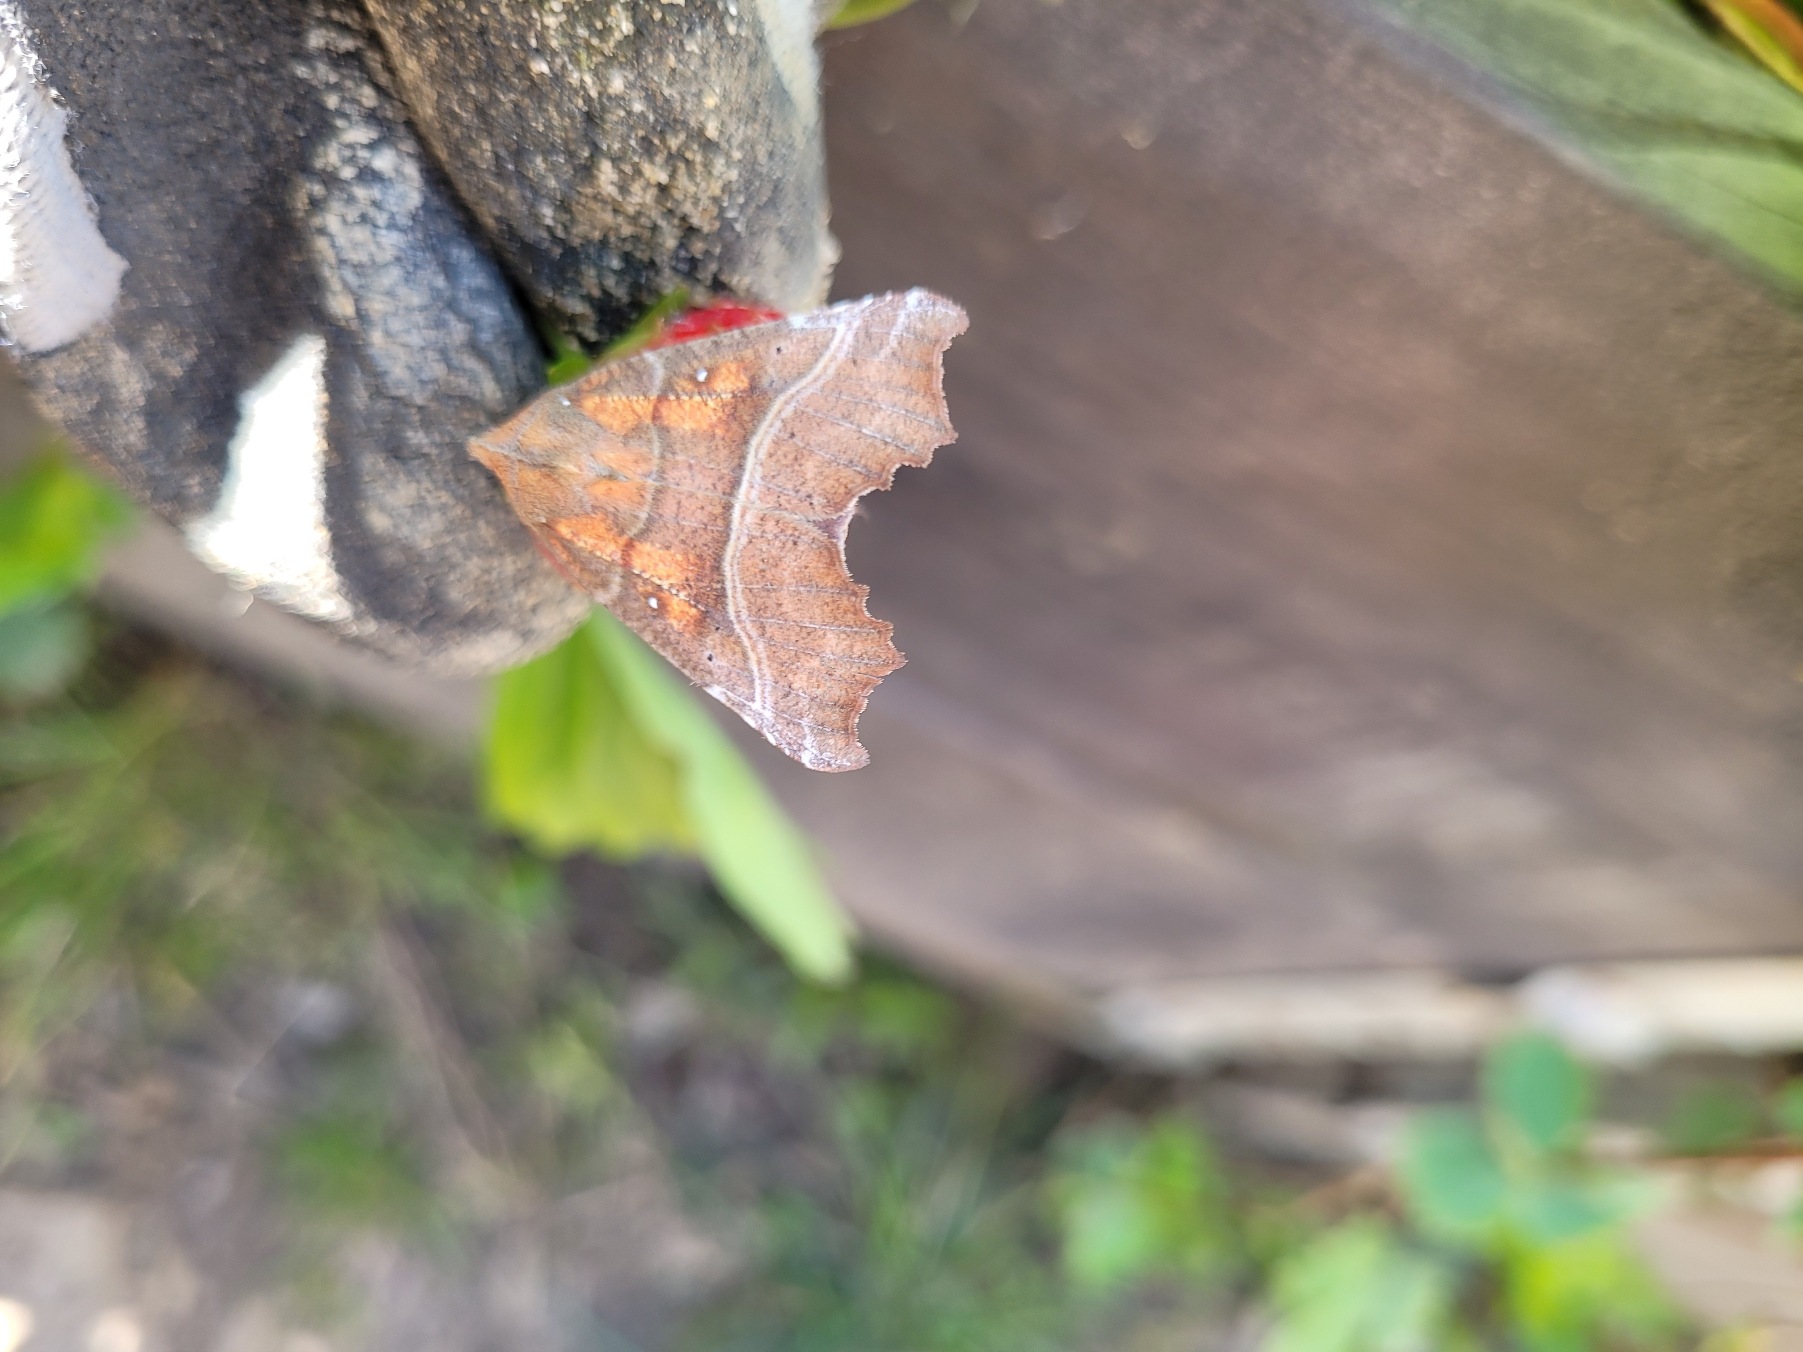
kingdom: Animalia
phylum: Arthropoda
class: Insecta
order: Lepidoptera
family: Erebidae
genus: Scoliopteryx
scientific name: Scoliopteryx libatrix
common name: Husmoderugle
